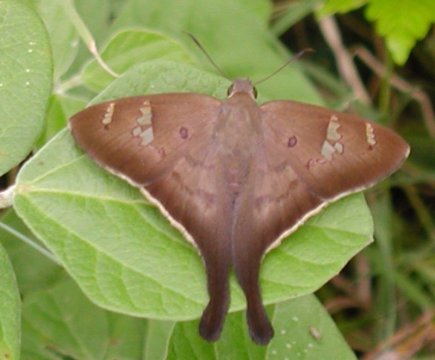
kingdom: Animalia
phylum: Arthropoda
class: Insecta
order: Lepidoptera
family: Hesperiidae
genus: Polythrix
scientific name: Polythrix mexicanus
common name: Mexican Longtail
